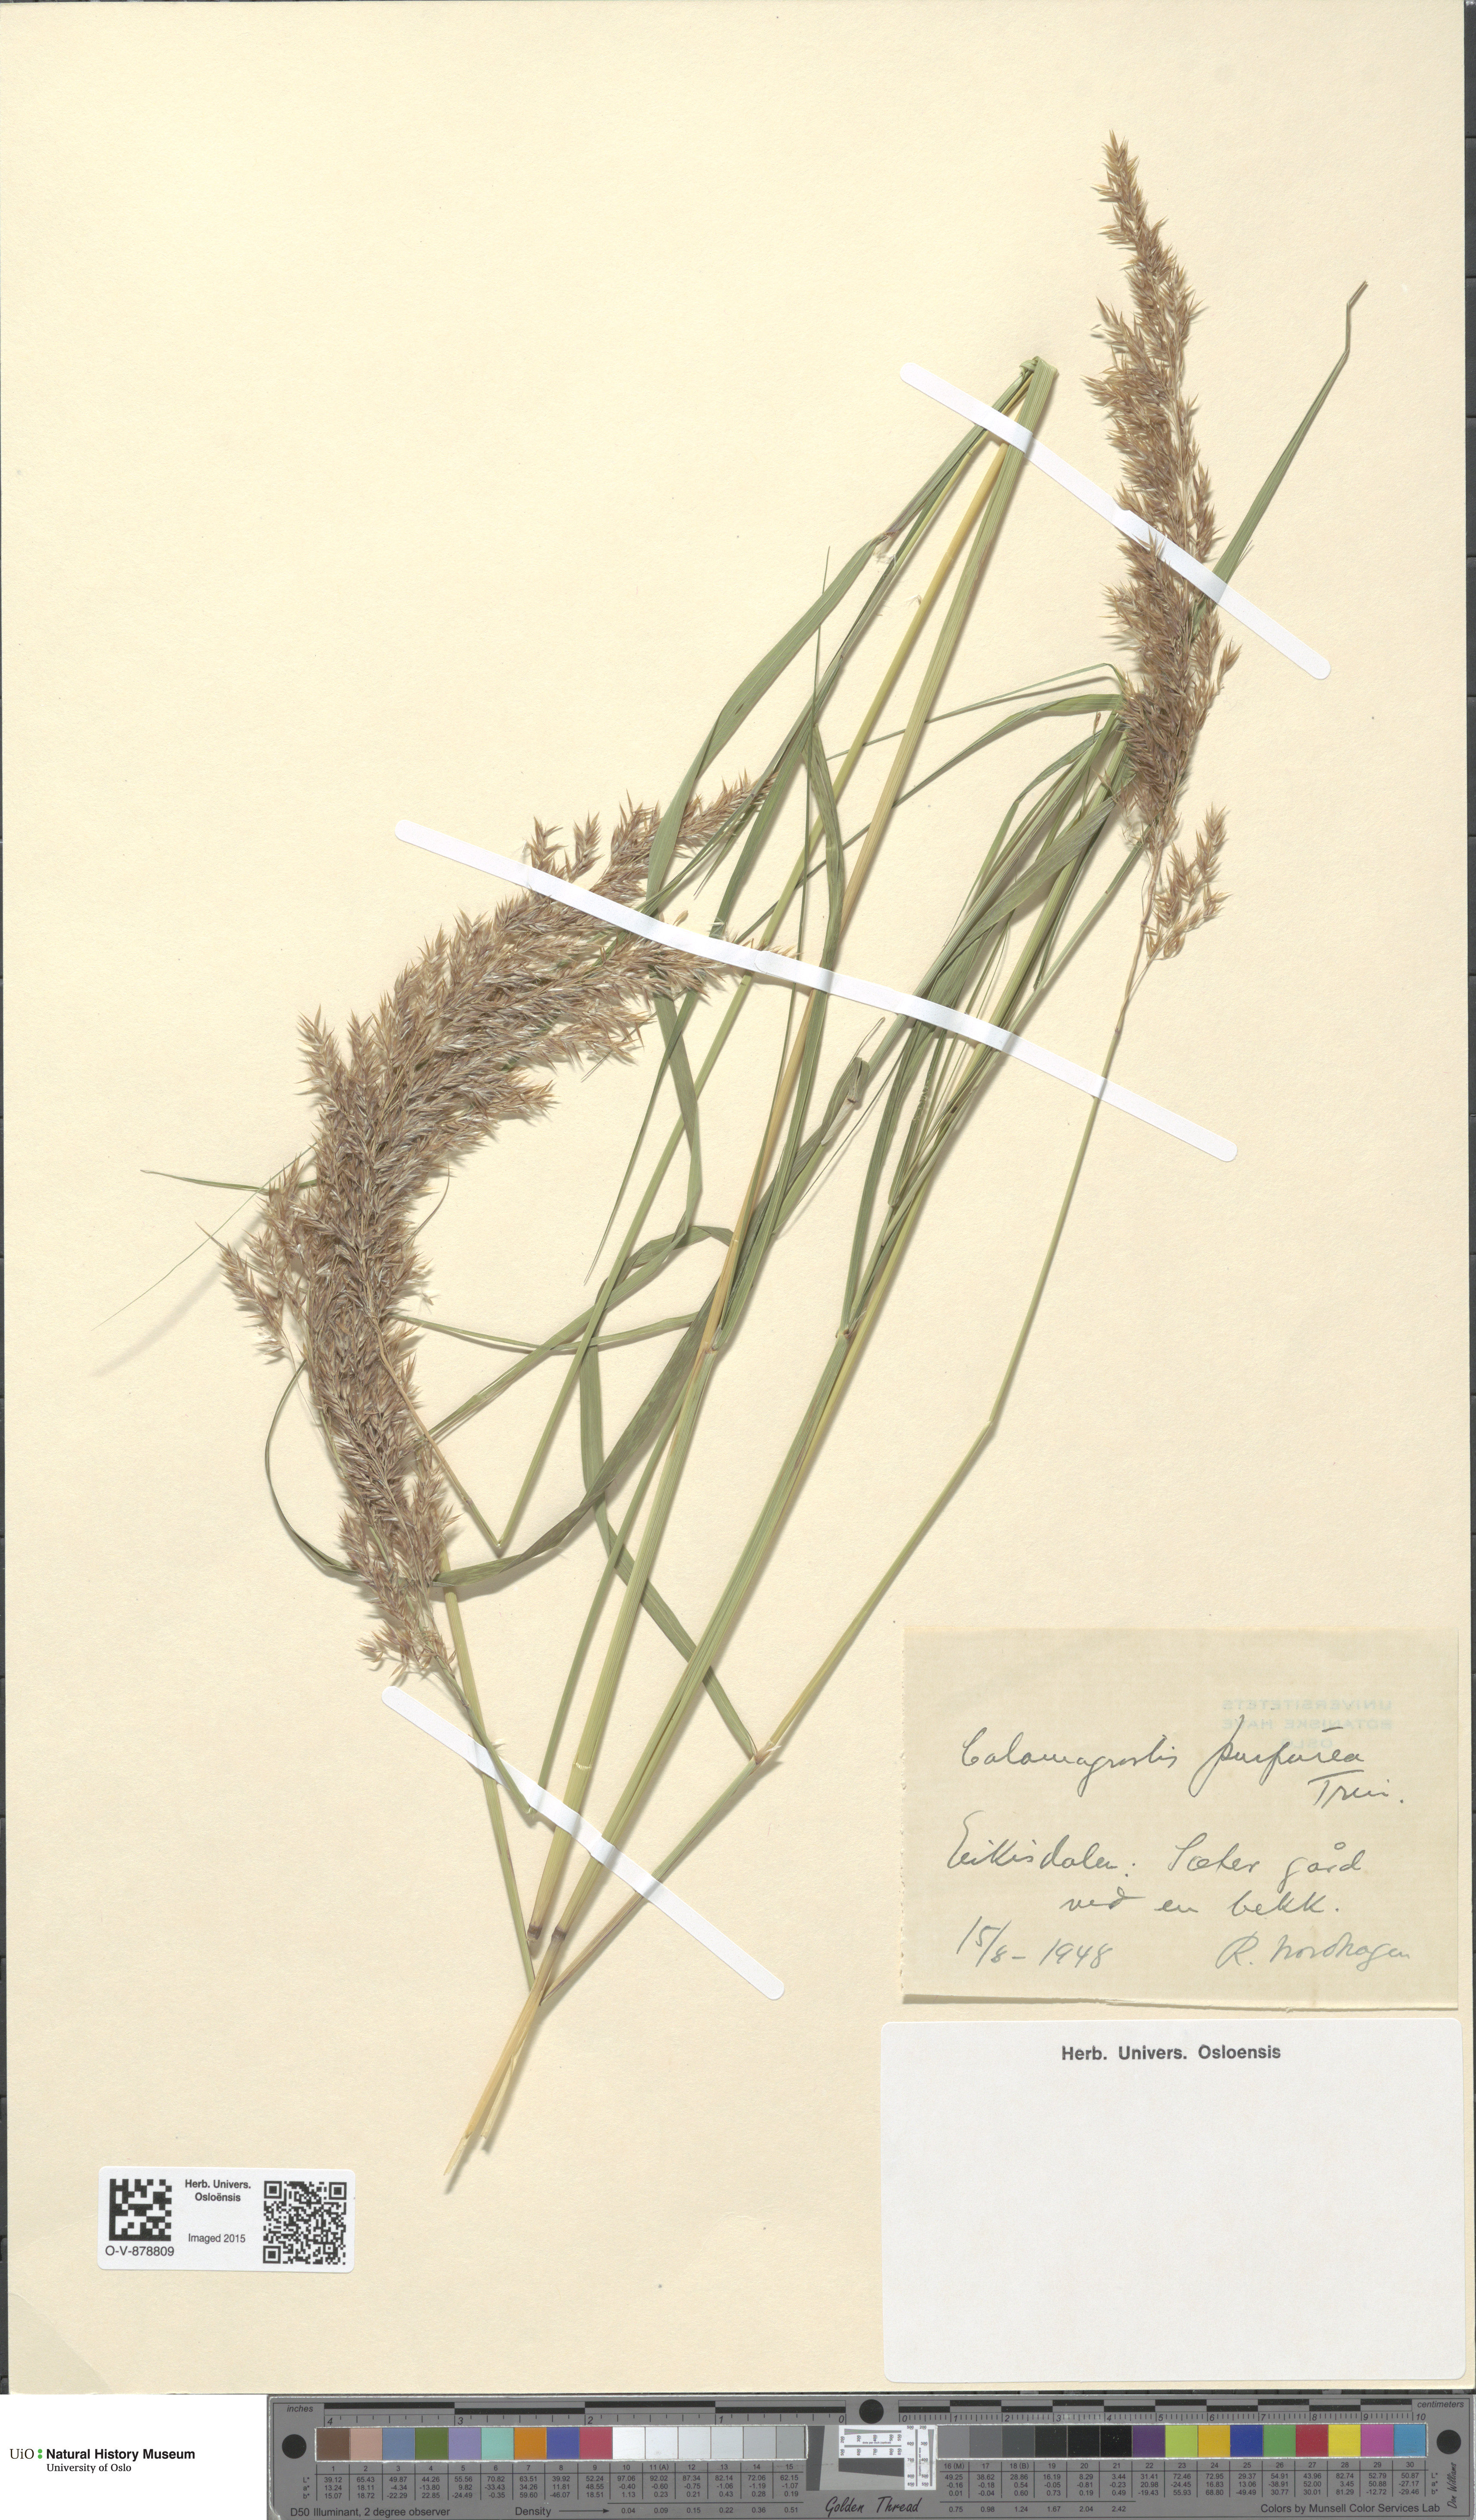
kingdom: Plantae
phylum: Tracheophyta
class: Liliopsida
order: Poales
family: Poaceae
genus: Calamagrostis
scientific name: Calamagrostis purpurea
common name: Scandinavian small-reed
